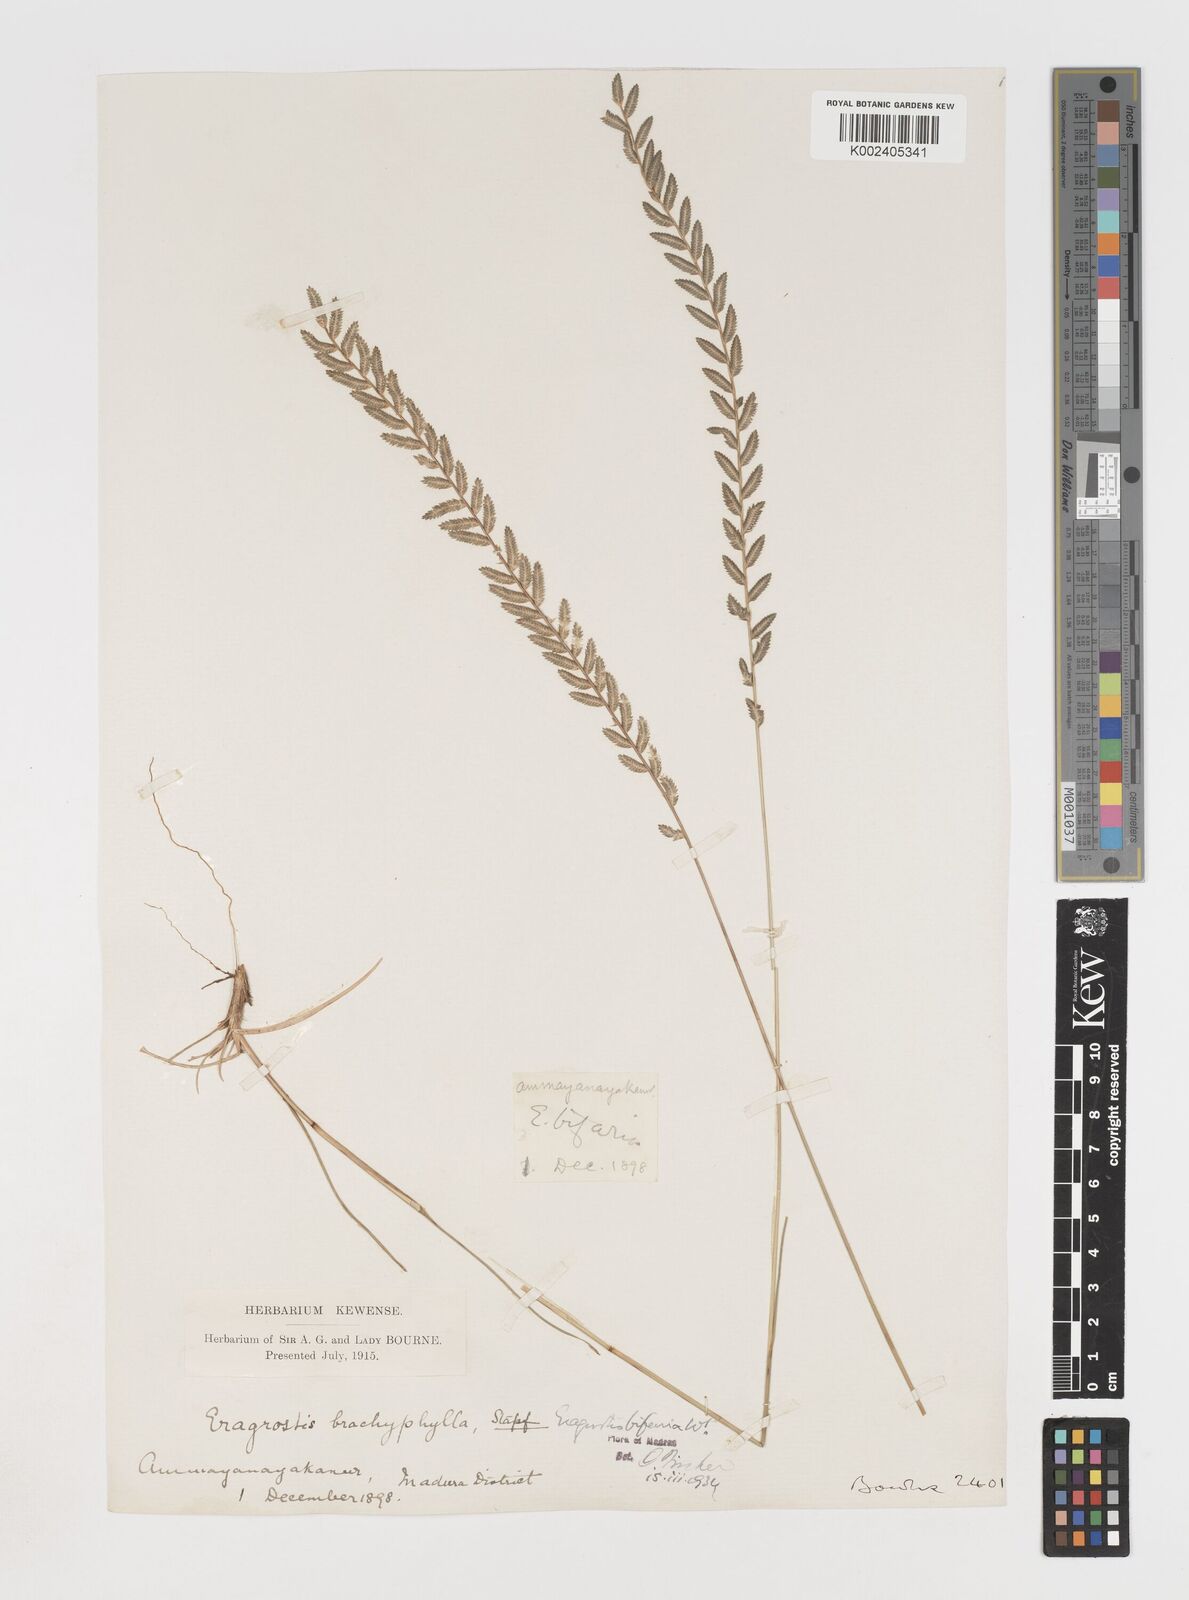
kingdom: Plantae
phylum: Tracheophyta
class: Liliopsida
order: Poales
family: Poaceae
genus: Eragrostiella
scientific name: Eragrostiella bifaria
